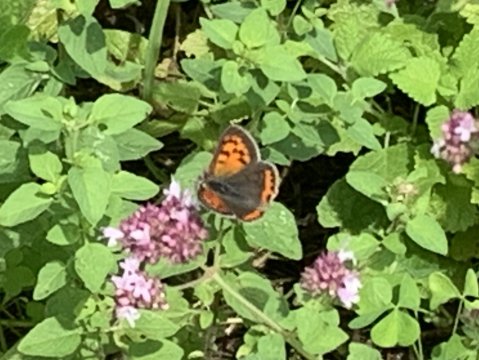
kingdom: Animalia
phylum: Arthropoda
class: Insecta
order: Lepidoptera
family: Lycaenidae
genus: Lycaena
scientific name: Lycaena phlaeas
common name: American Copper
